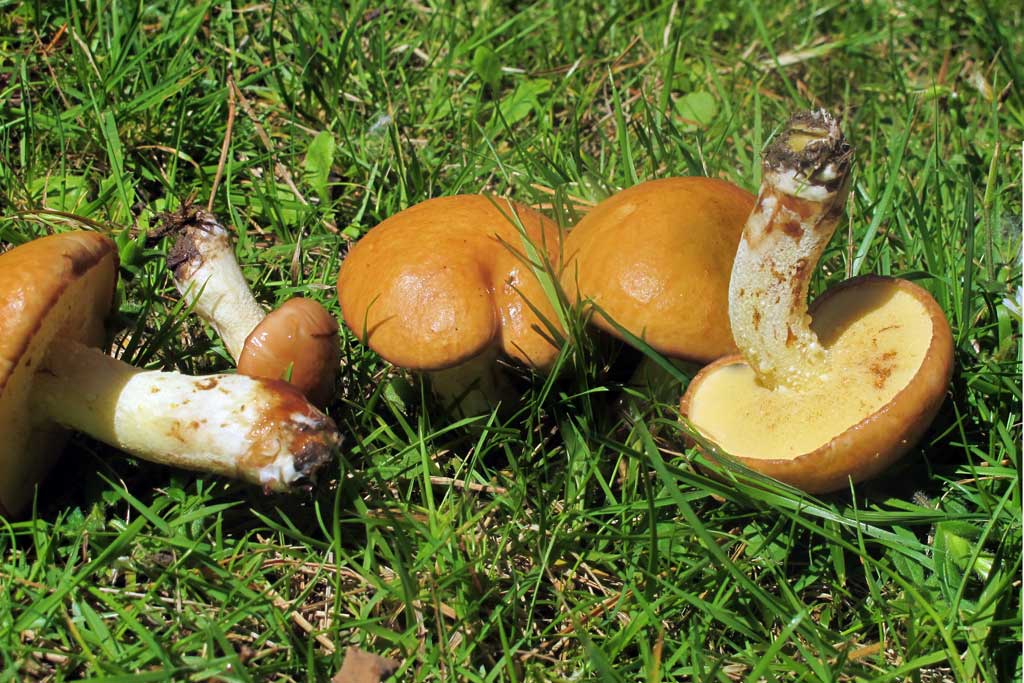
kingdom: Fungi
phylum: Basidiomycota
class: Agaricomycetes
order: Boletales
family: Suillaceae
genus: Suillus
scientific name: Suillus granulatus
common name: kornet slimrørhat
